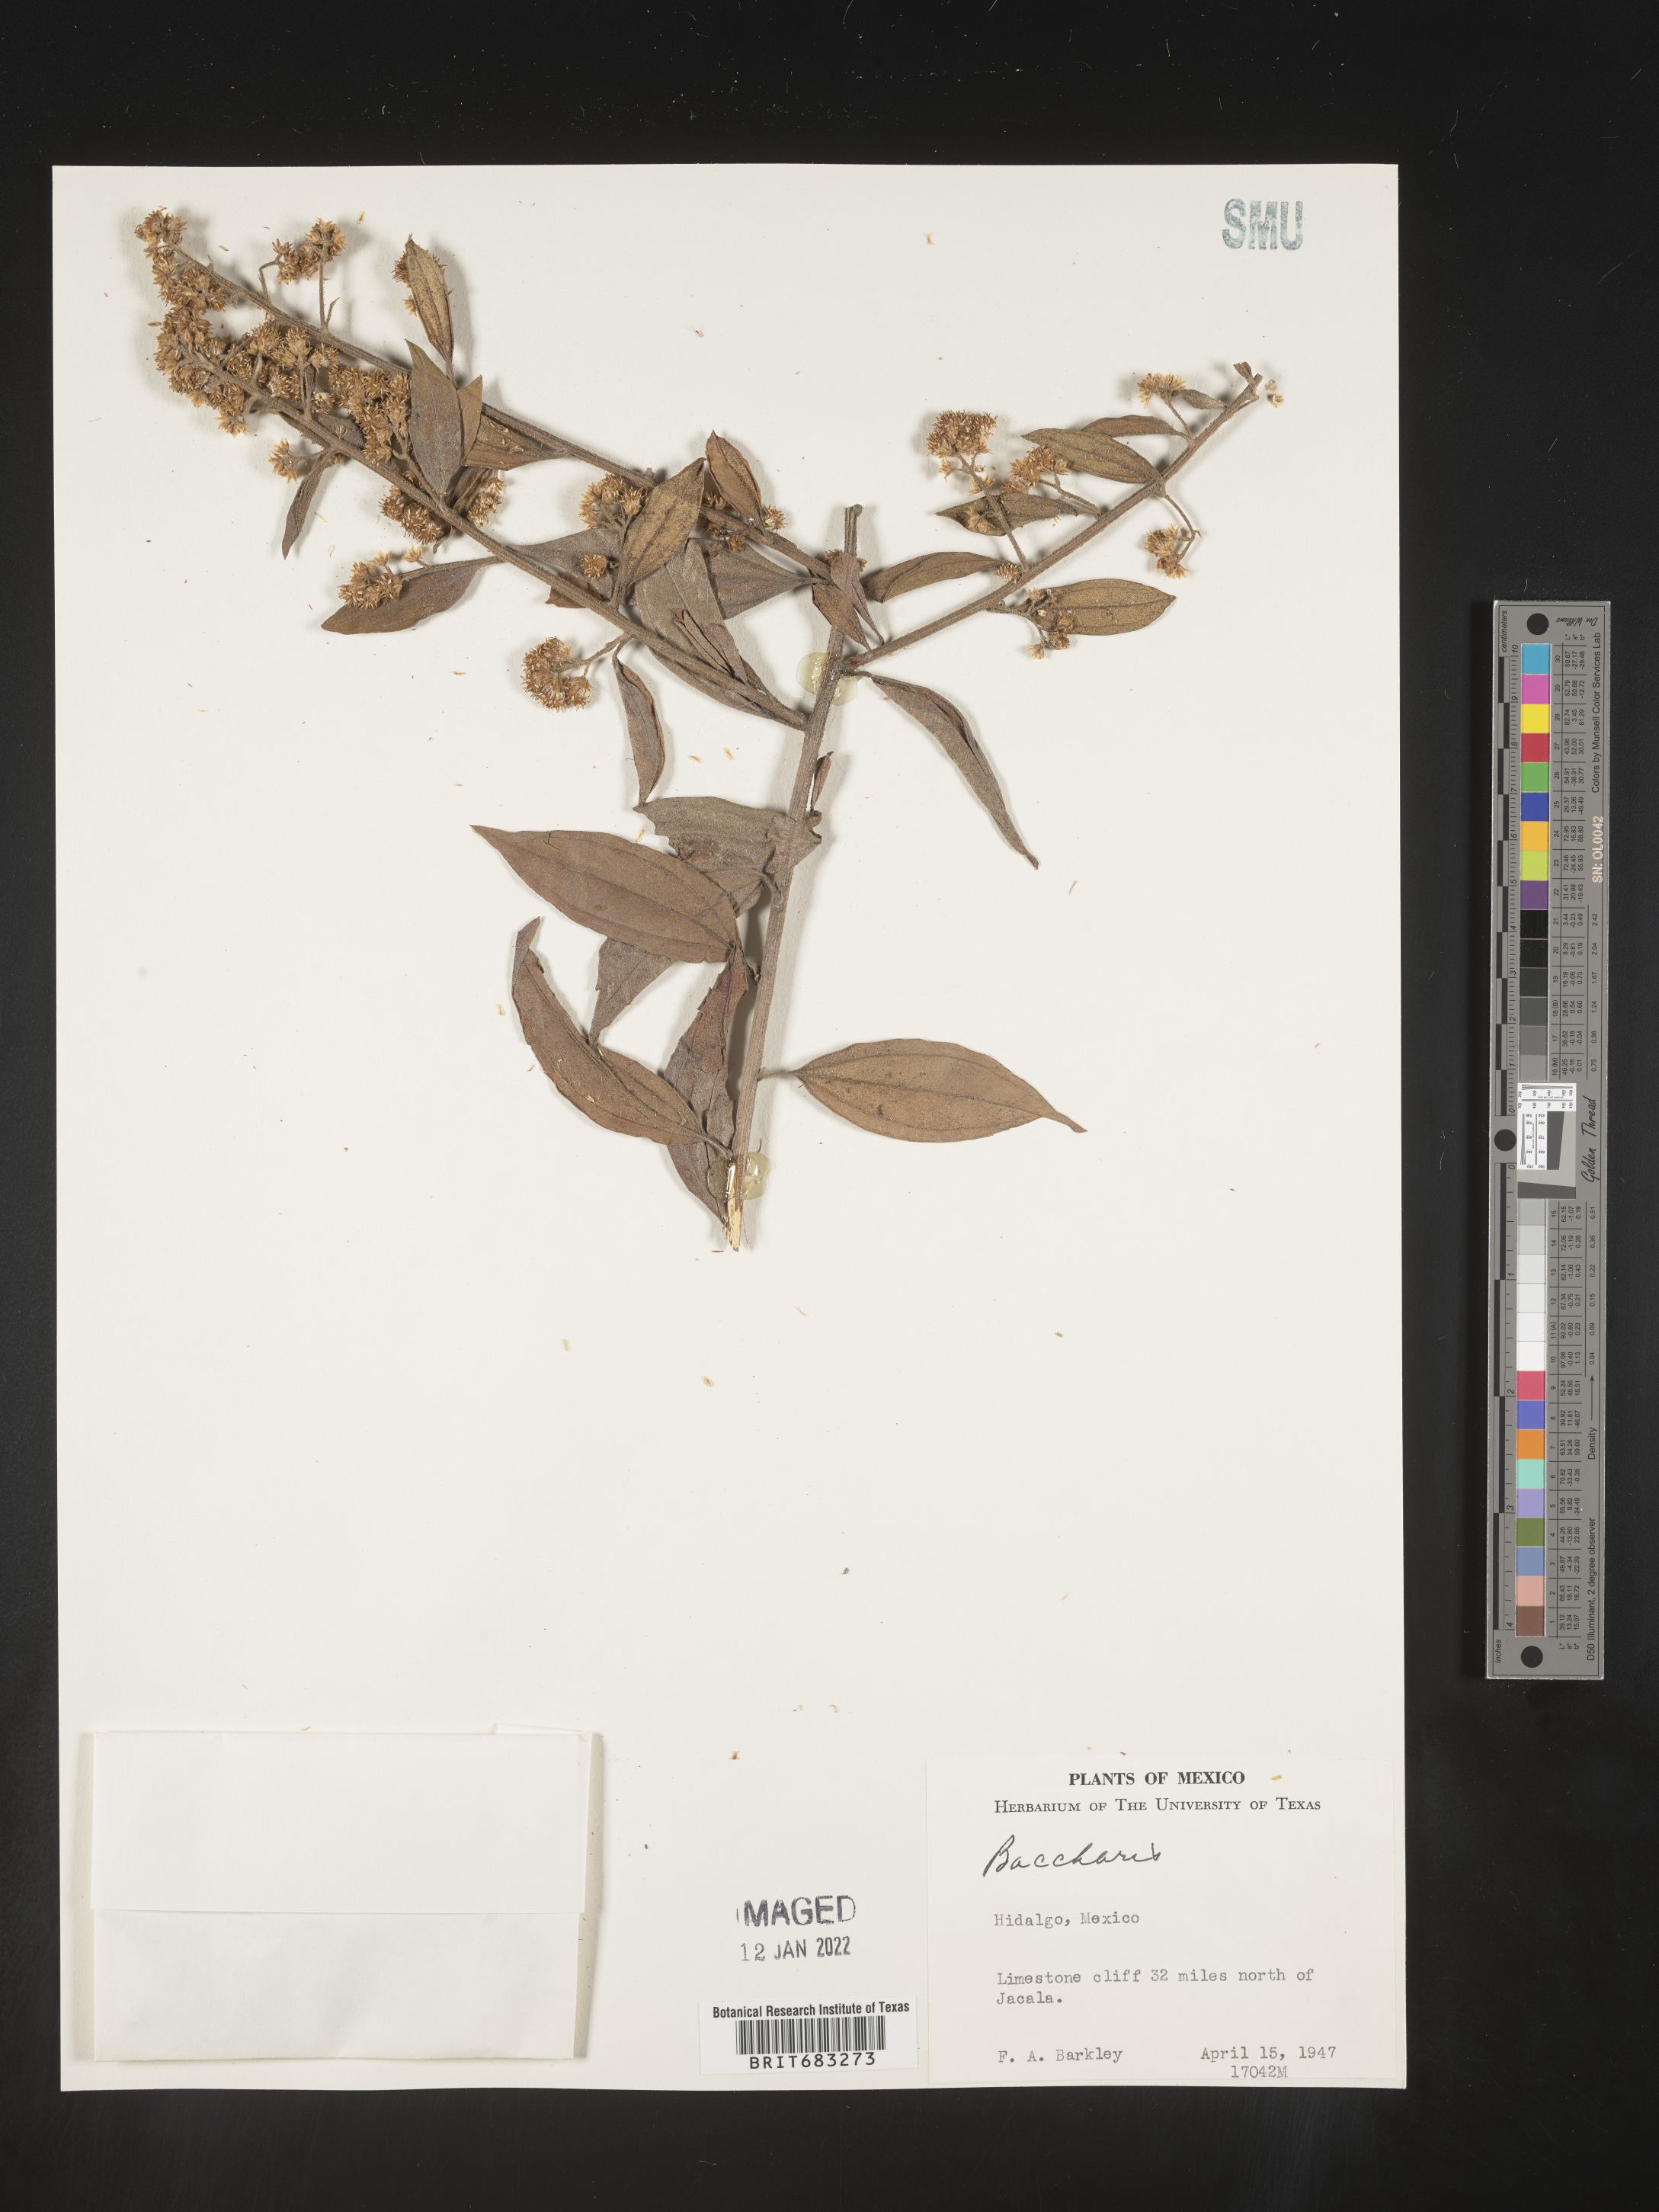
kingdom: Plantae
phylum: Tracheophyta
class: Magnoliopsida
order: Asterales
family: Asteraceae
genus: Baccharis
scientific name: Baccharis trinervis
